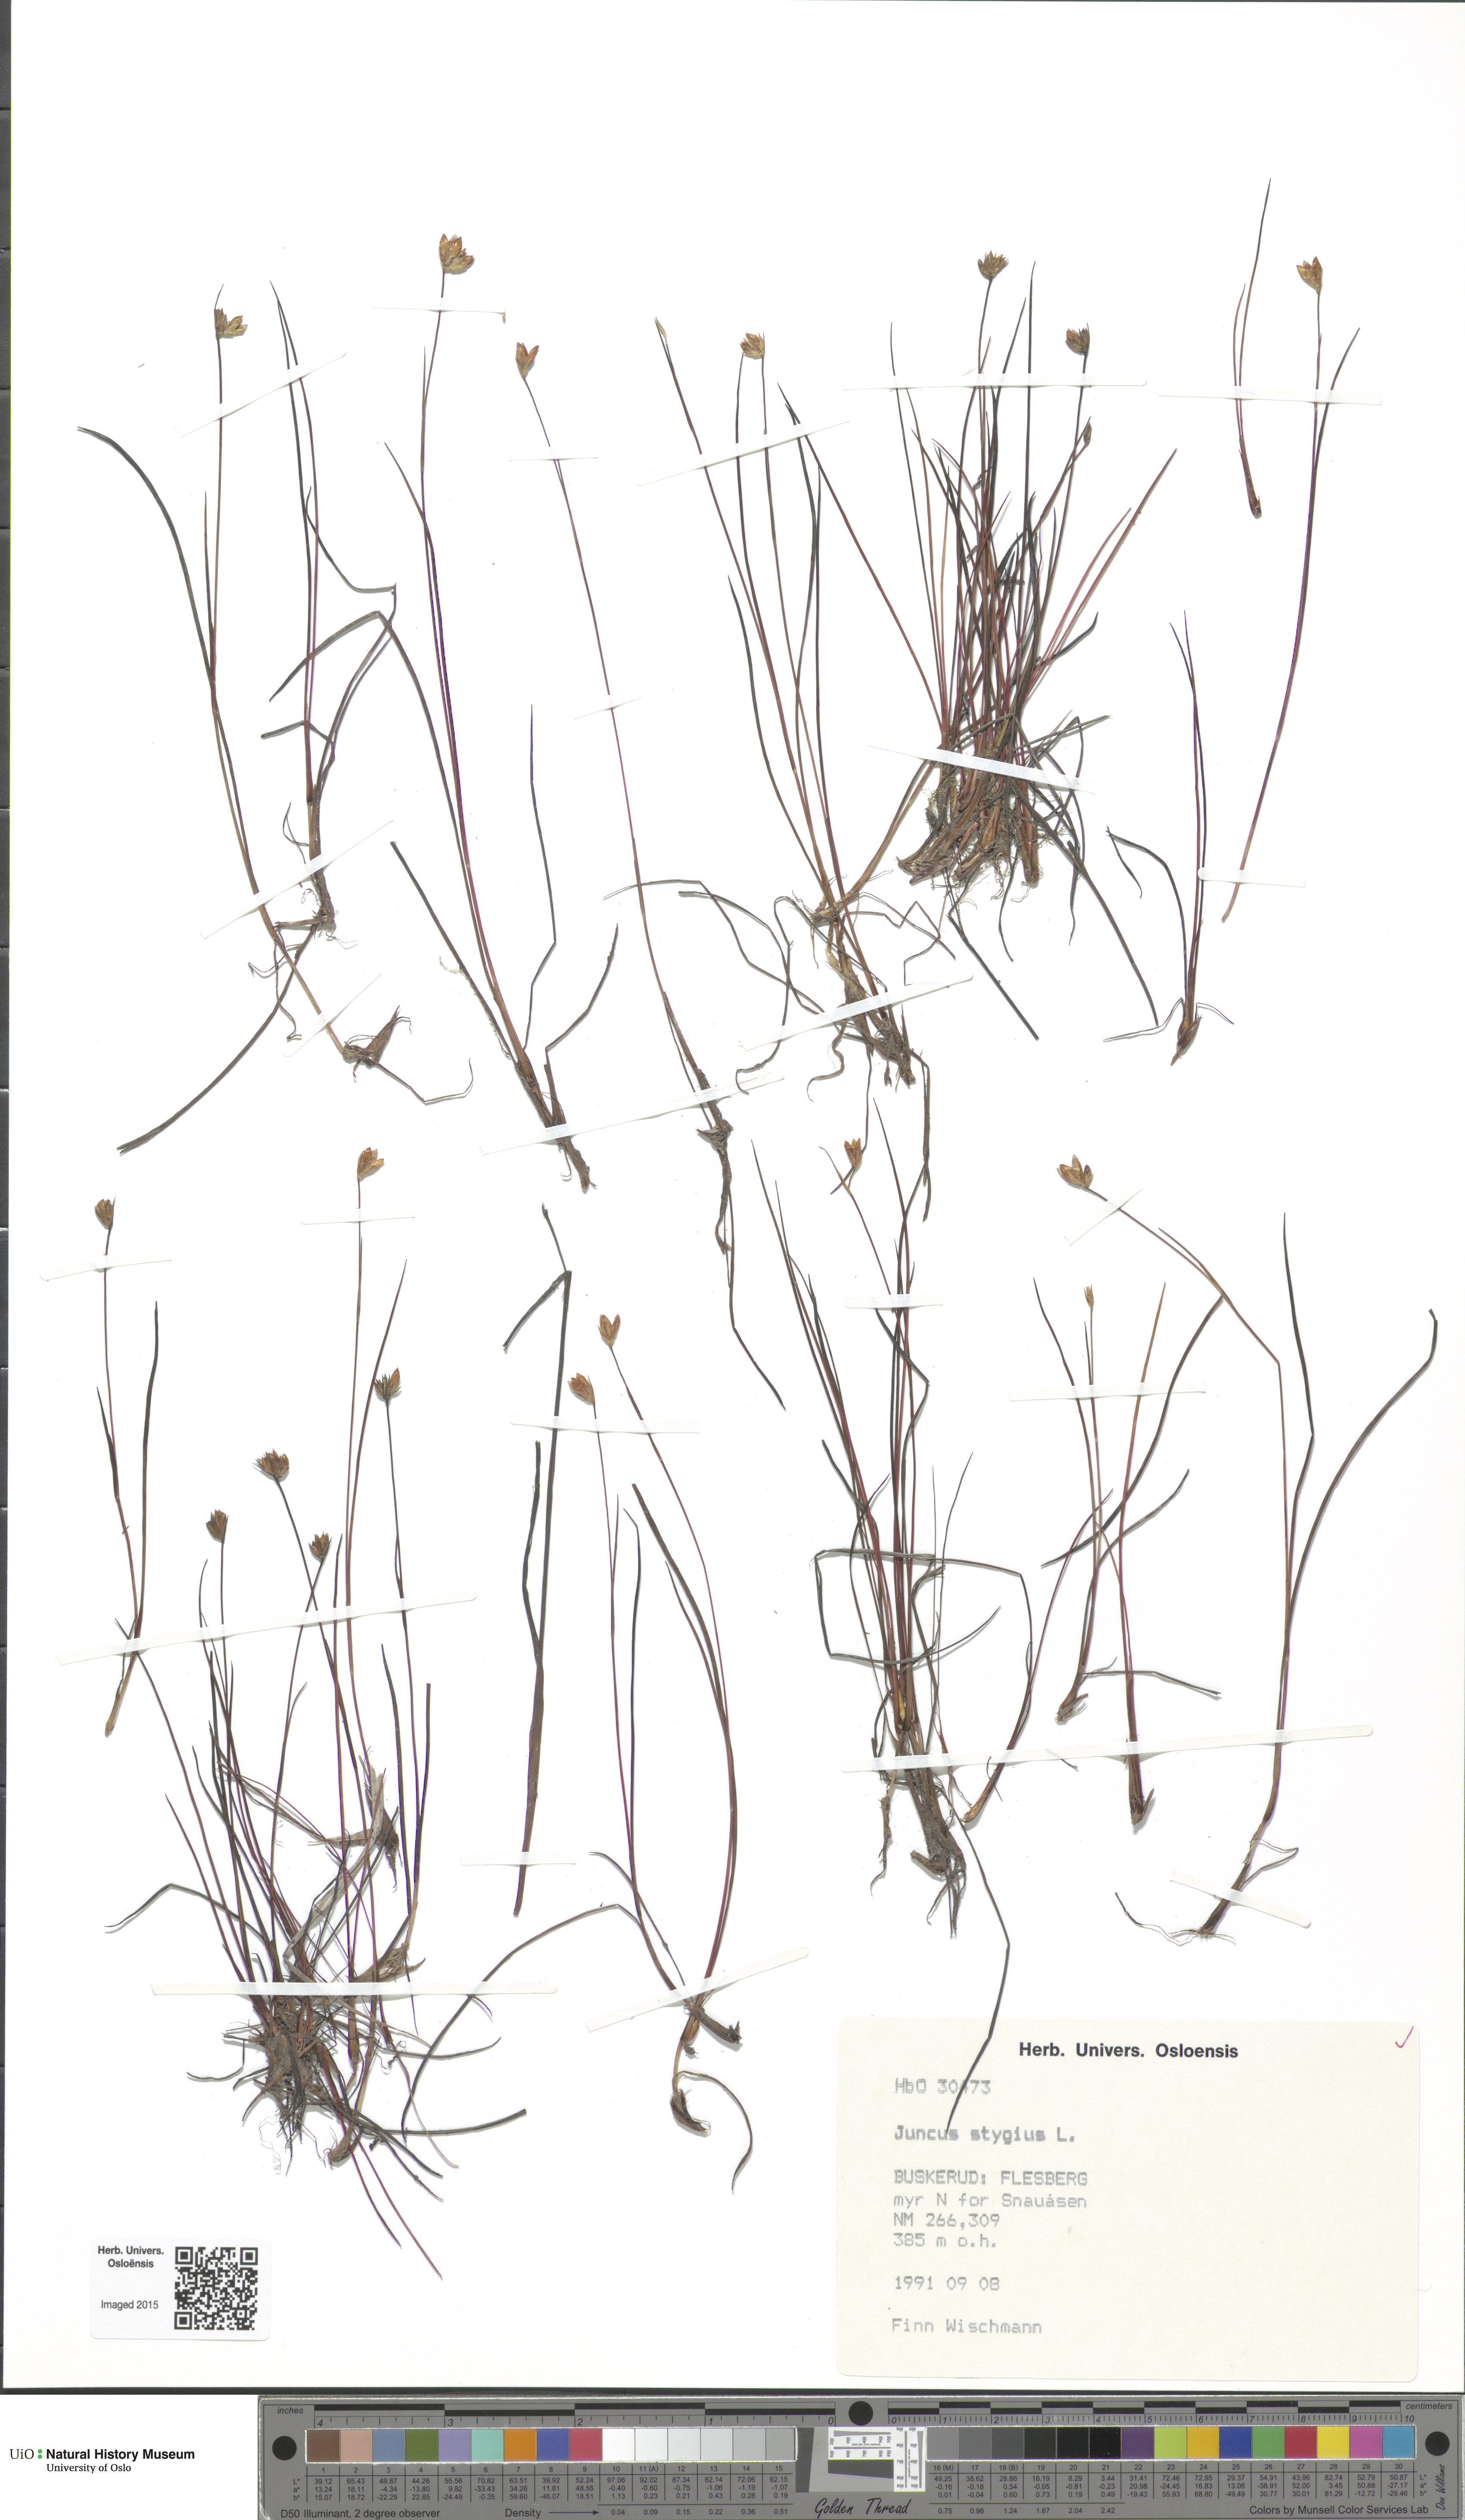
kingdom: Plantae
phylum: Tracheophyta
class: Liliopsida
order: Poales
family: Juncaceae
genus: Juncus
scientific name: Juncus stygius
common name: Bog rush
